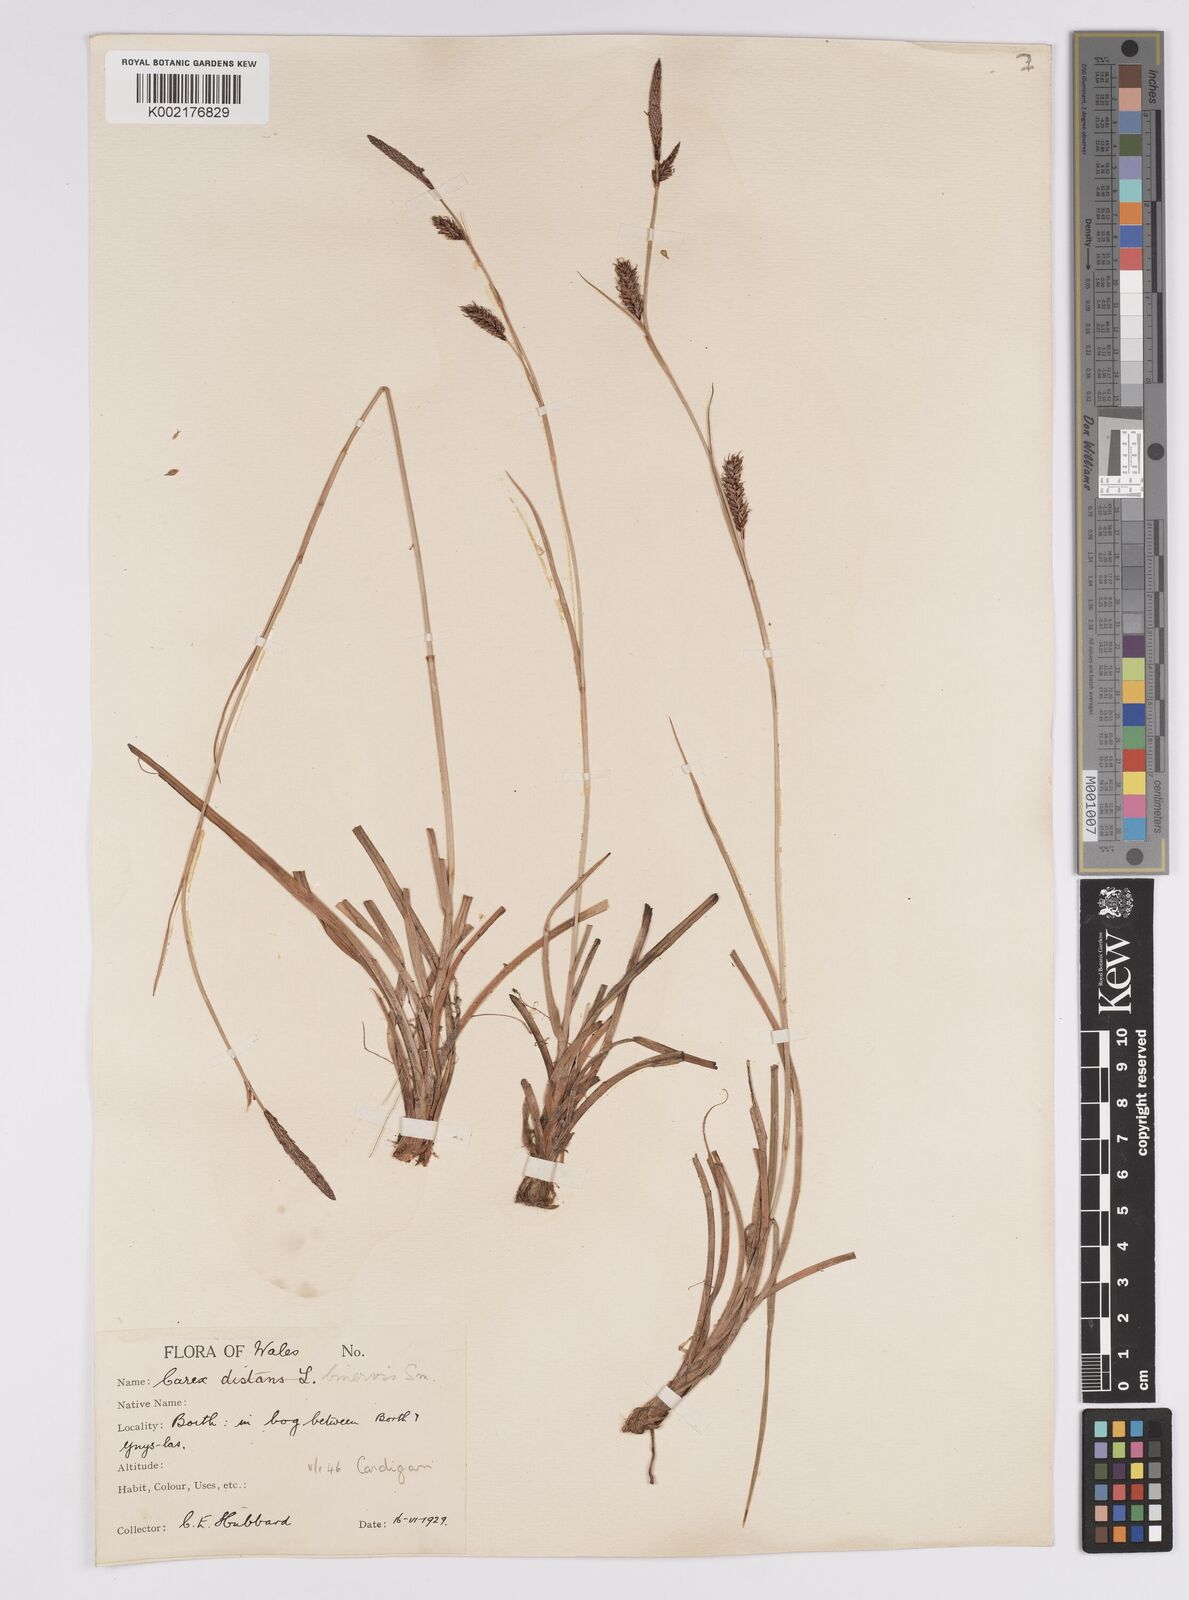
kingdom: Plantae
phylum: Tracheophyta
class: Liliopsida
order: Poales
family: Cyperaceae
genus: Carex
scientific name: Carex binervis
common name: Green-ribbed sedge
